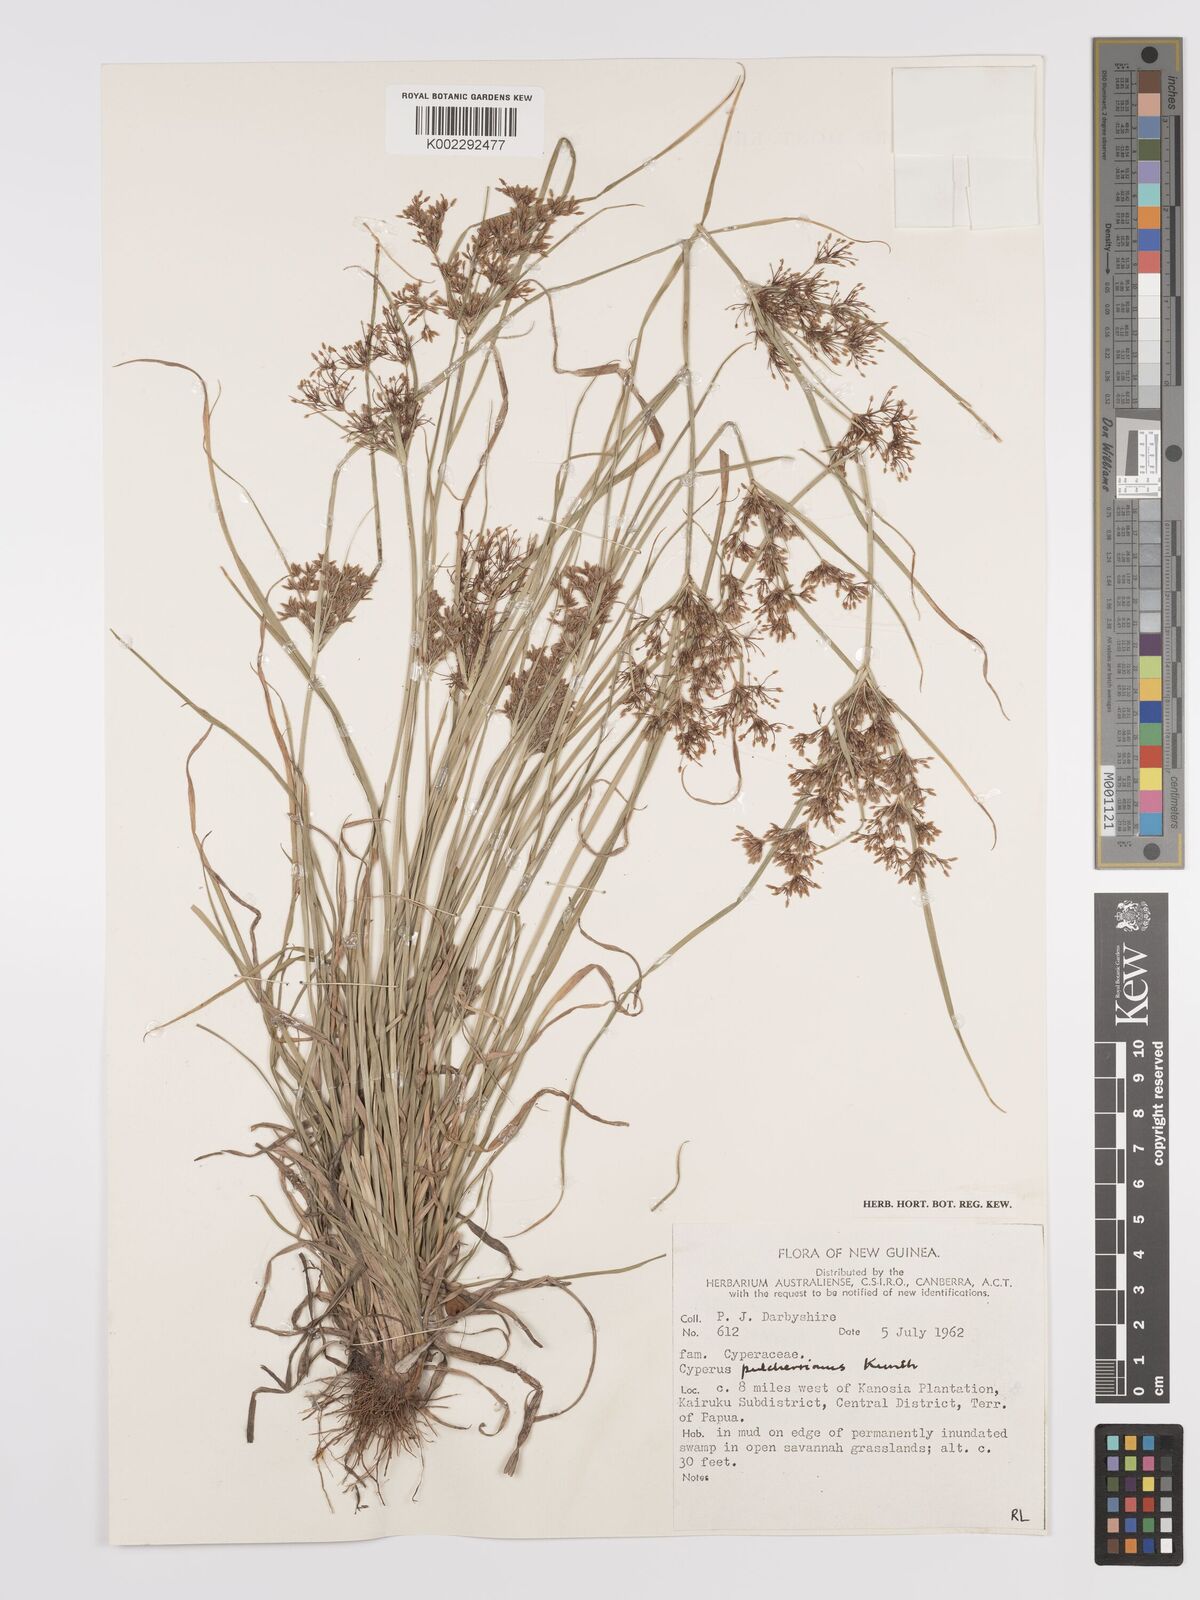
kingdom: Plantae
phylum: Tracheophyta
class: Liliopsida
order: Poales
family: Cyperaceae
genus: Cyperus
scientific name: Cyperus pulcherrimus
